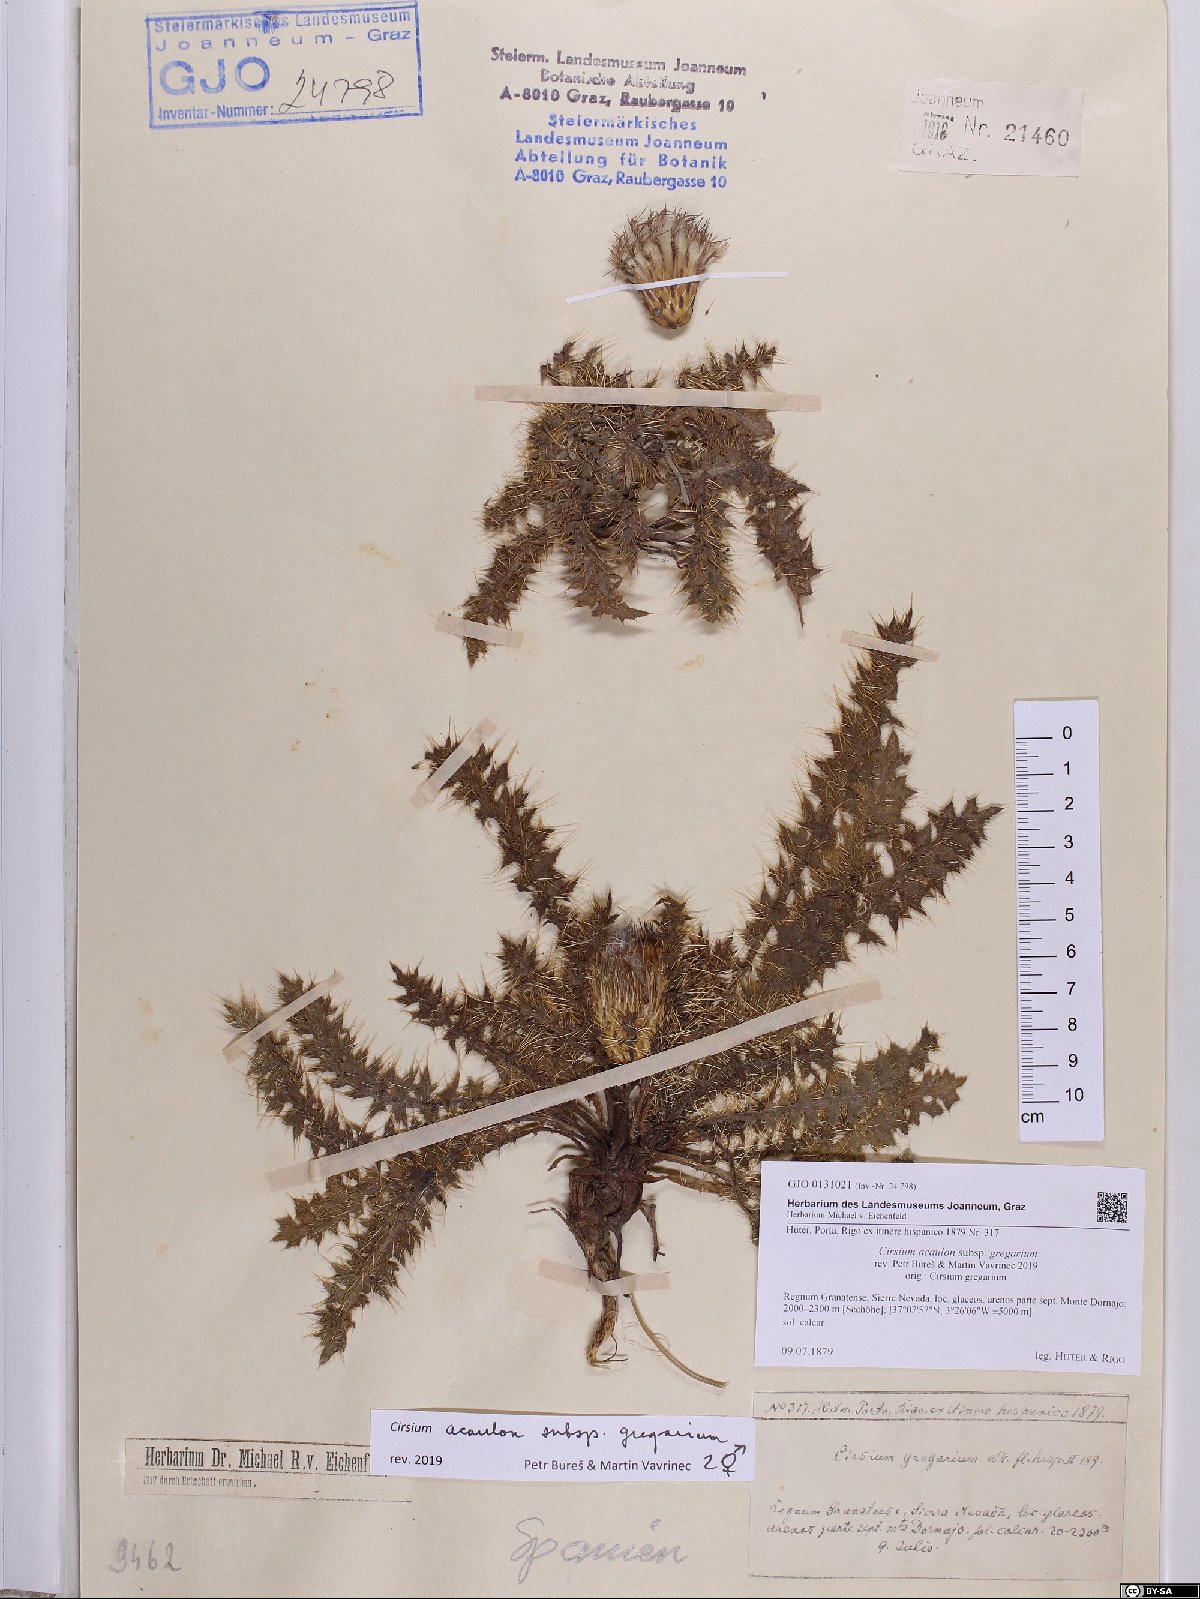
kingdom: Plantae
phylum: Tracheophyta
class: Magnoliopsida
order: Asterales
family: Asteraceae
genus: Cirsium
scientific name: Cirsium acaule
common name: Dwarf thistle
